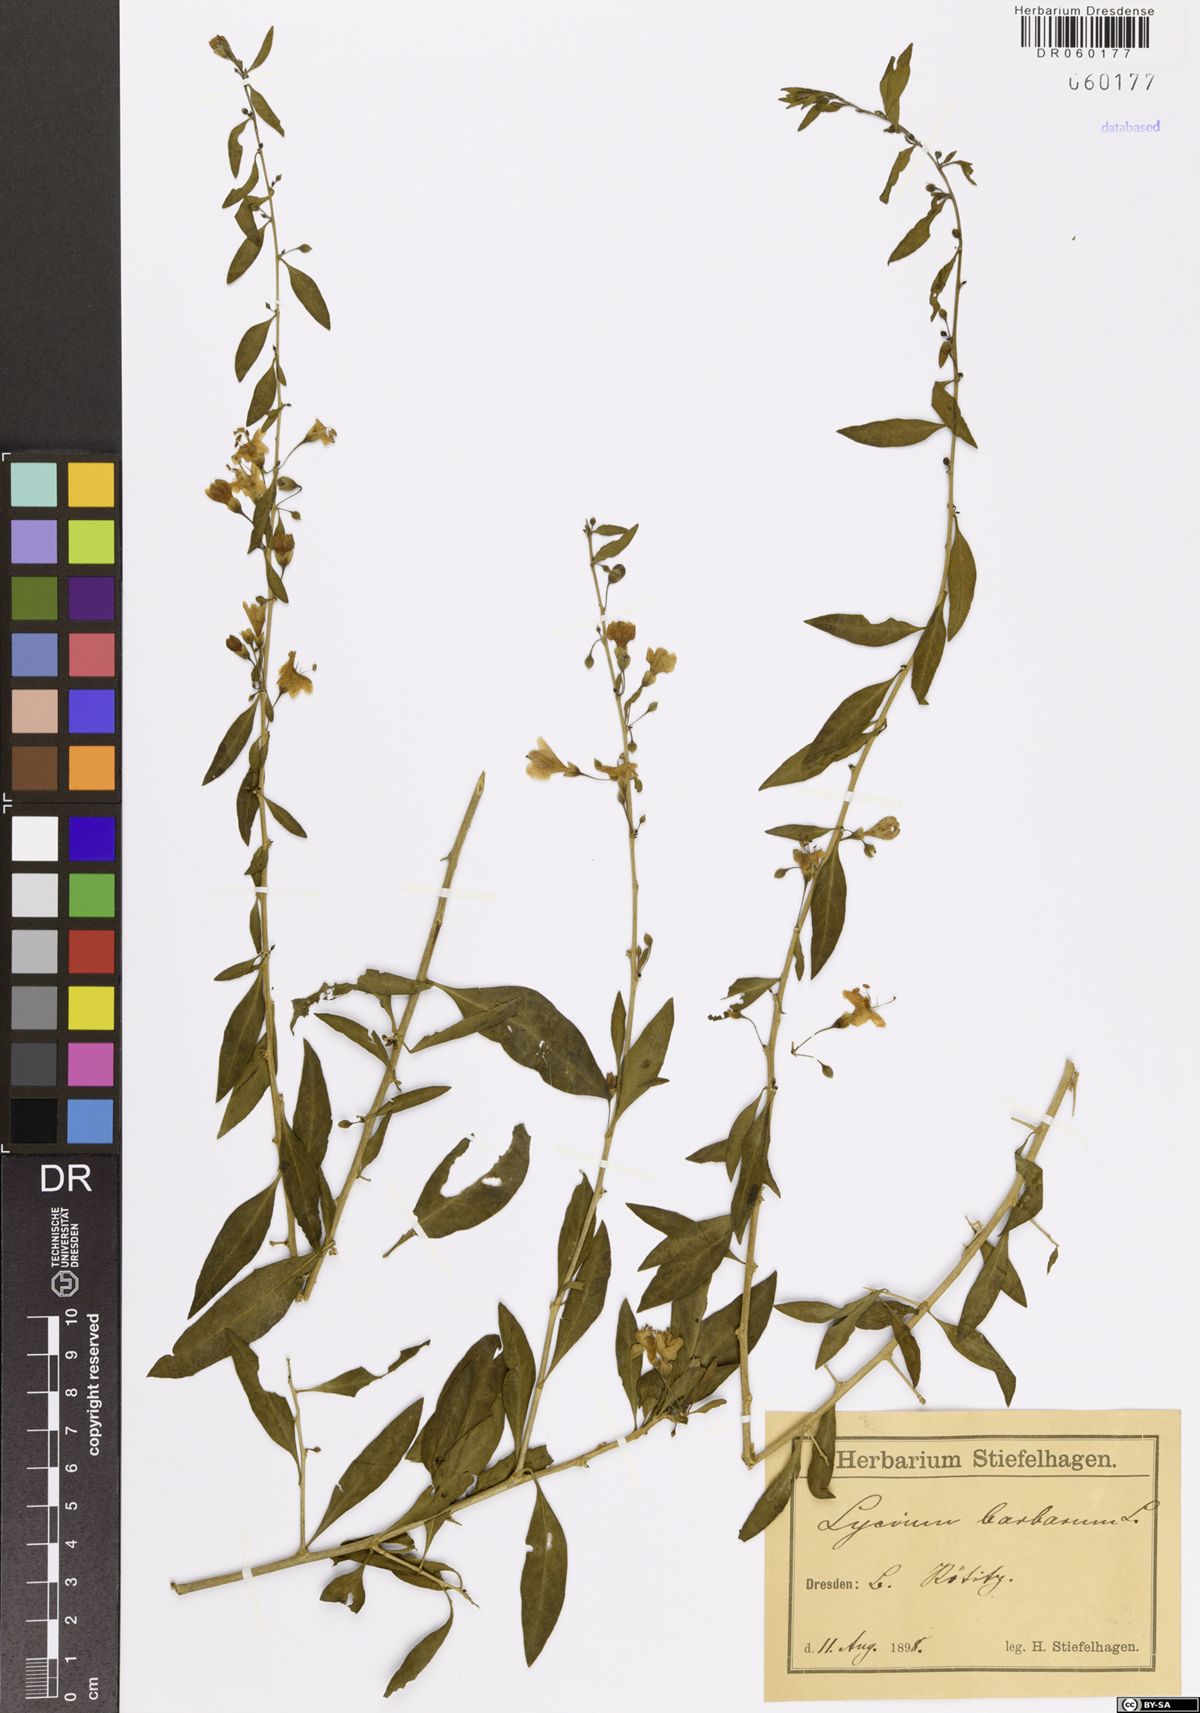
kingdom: Plantae
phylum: Tracheophyta
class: Magnoliopsida
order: Solanales
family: Solanaceae
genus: Lycium
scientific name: Lycium barbarum
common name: Duke of argyll's teaplant
